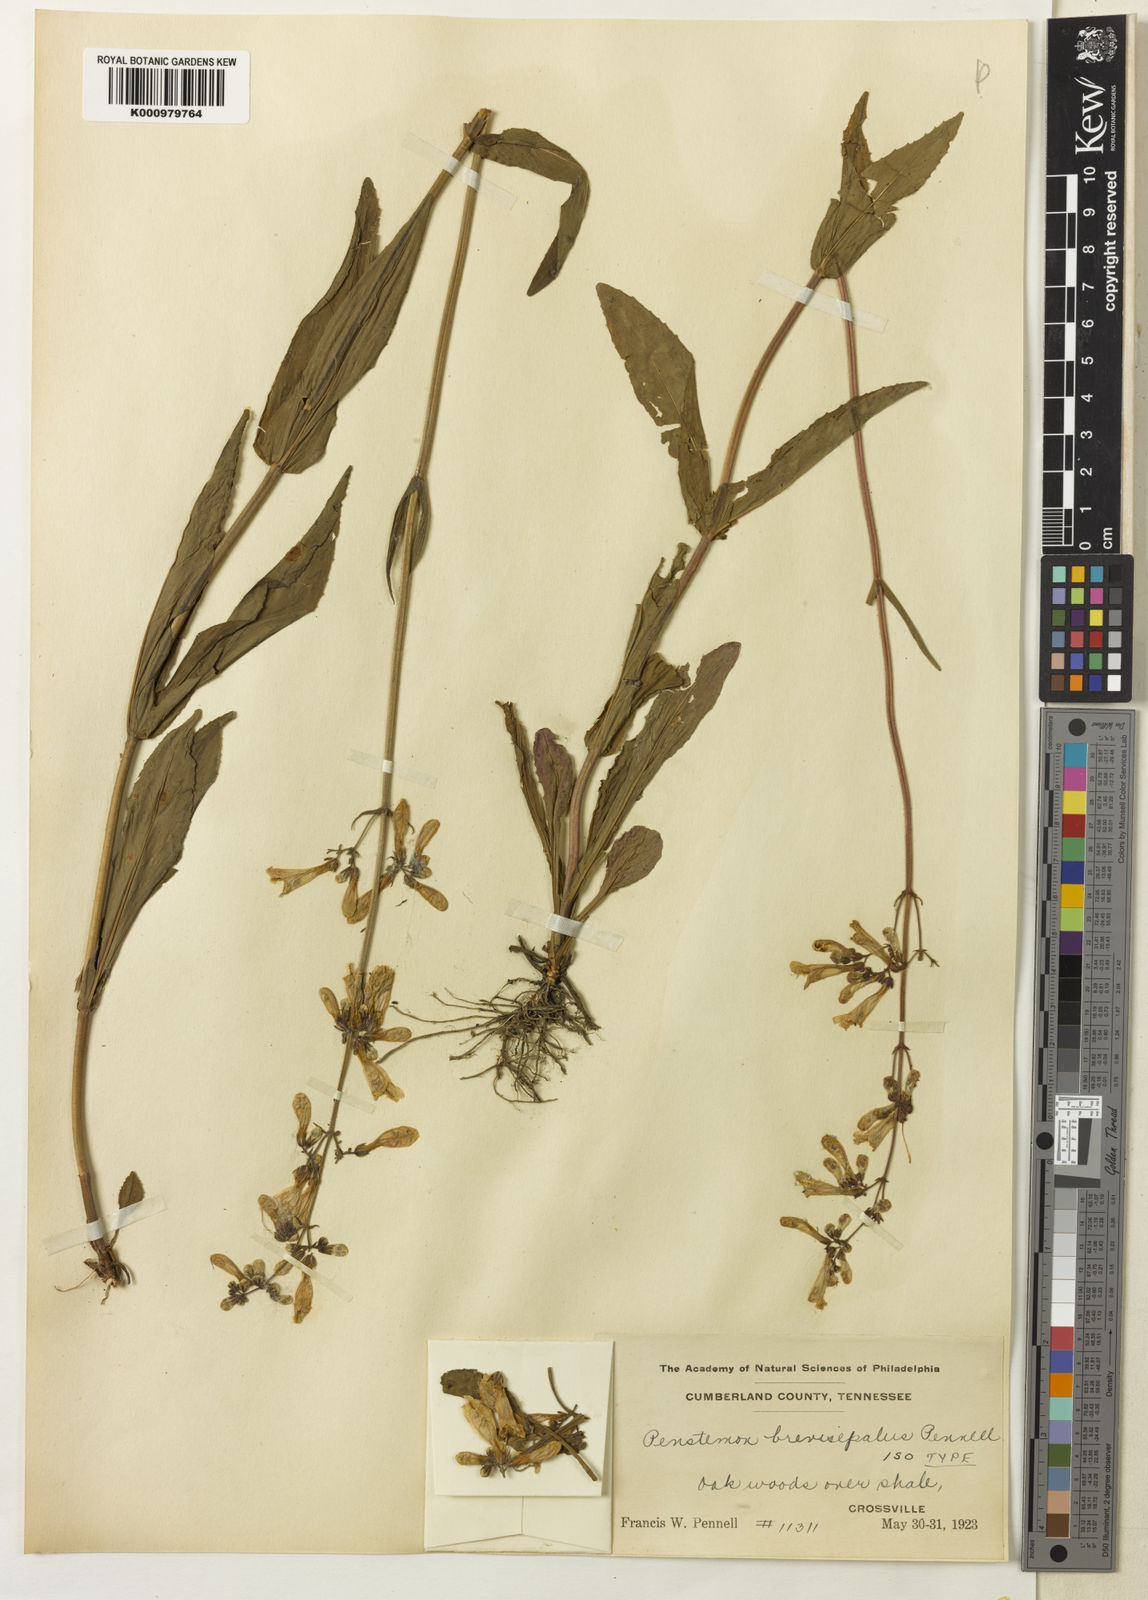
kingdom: Plantae
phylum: Tracheophyta
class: Magnoliopsida
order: Lamiales
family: Plantaginaceae
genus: Penstemon
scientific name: Penstemon brevisepalus
